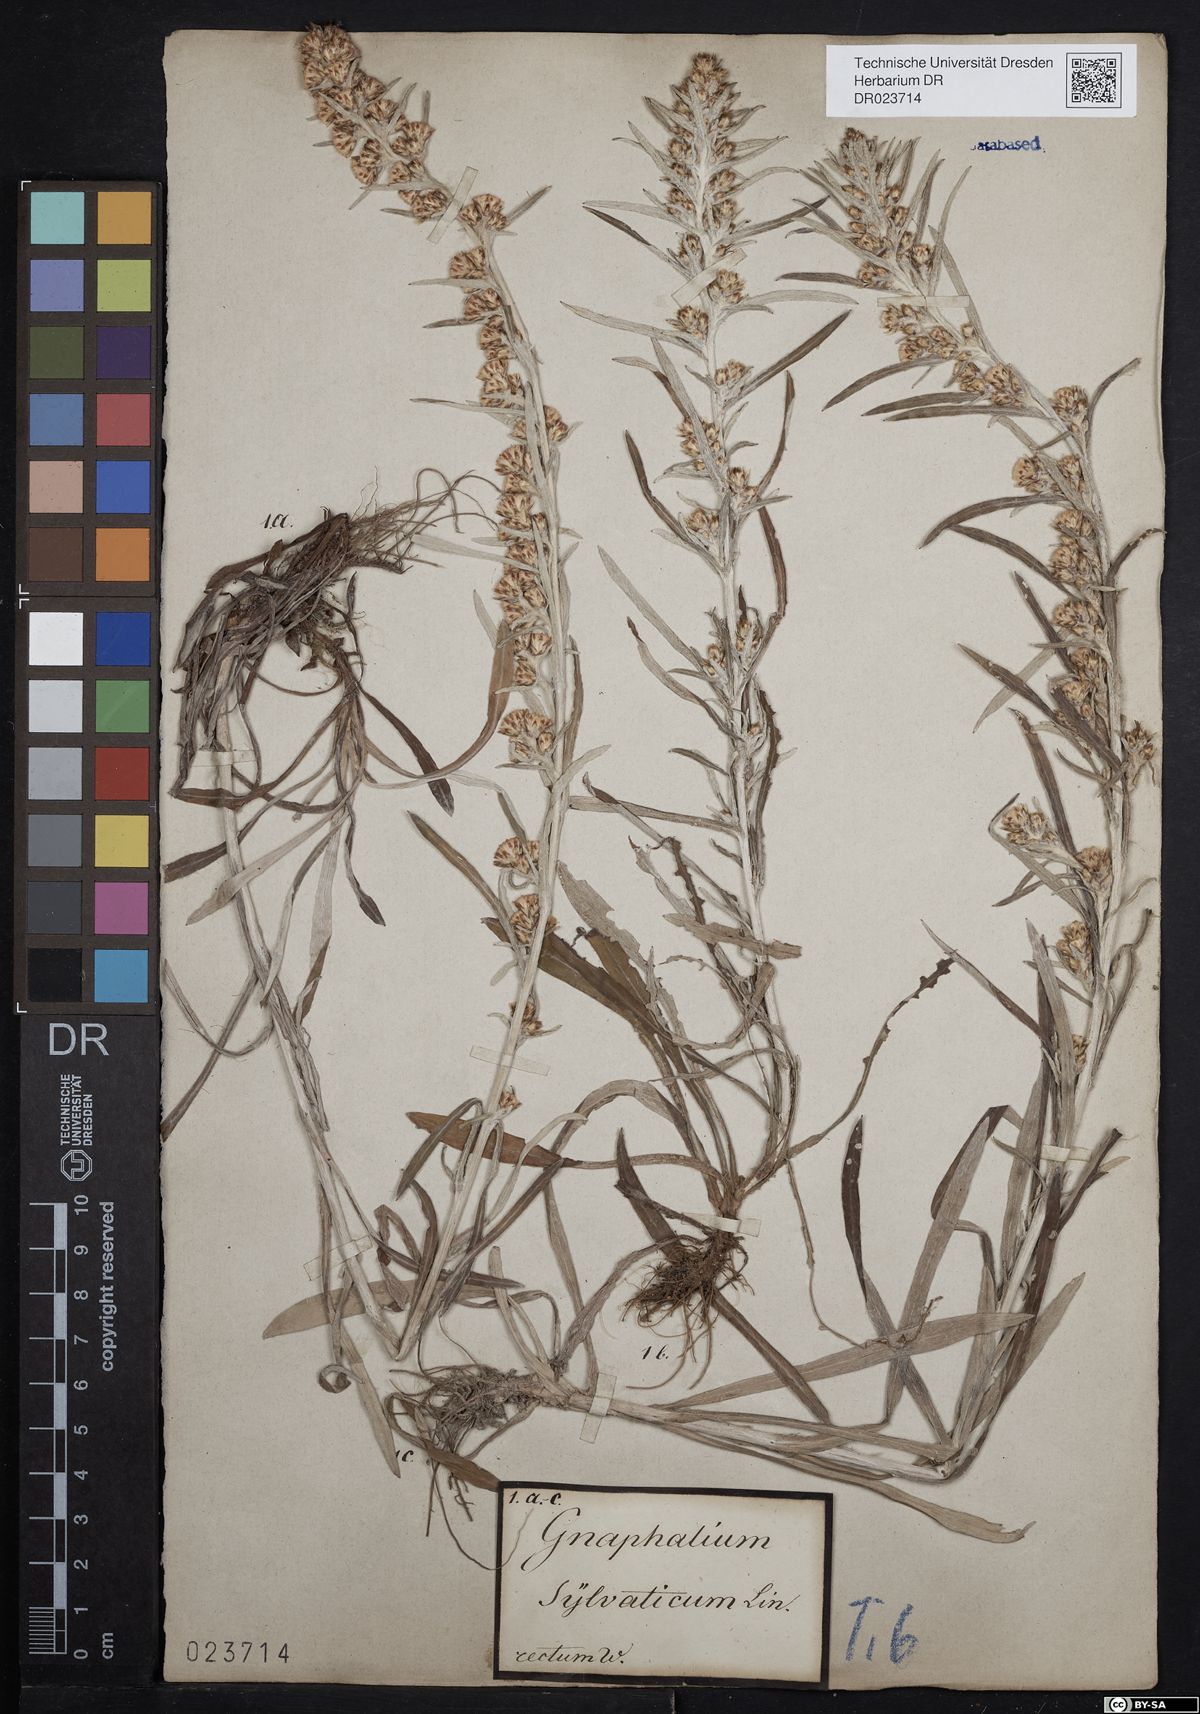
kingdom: Plantae
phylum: Tracheophyta
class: Magnoliopsida
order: Asterales
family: Asteraceae
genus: Omalotheca
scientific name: Omalotheca sylvatica
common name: Heath cudweed
